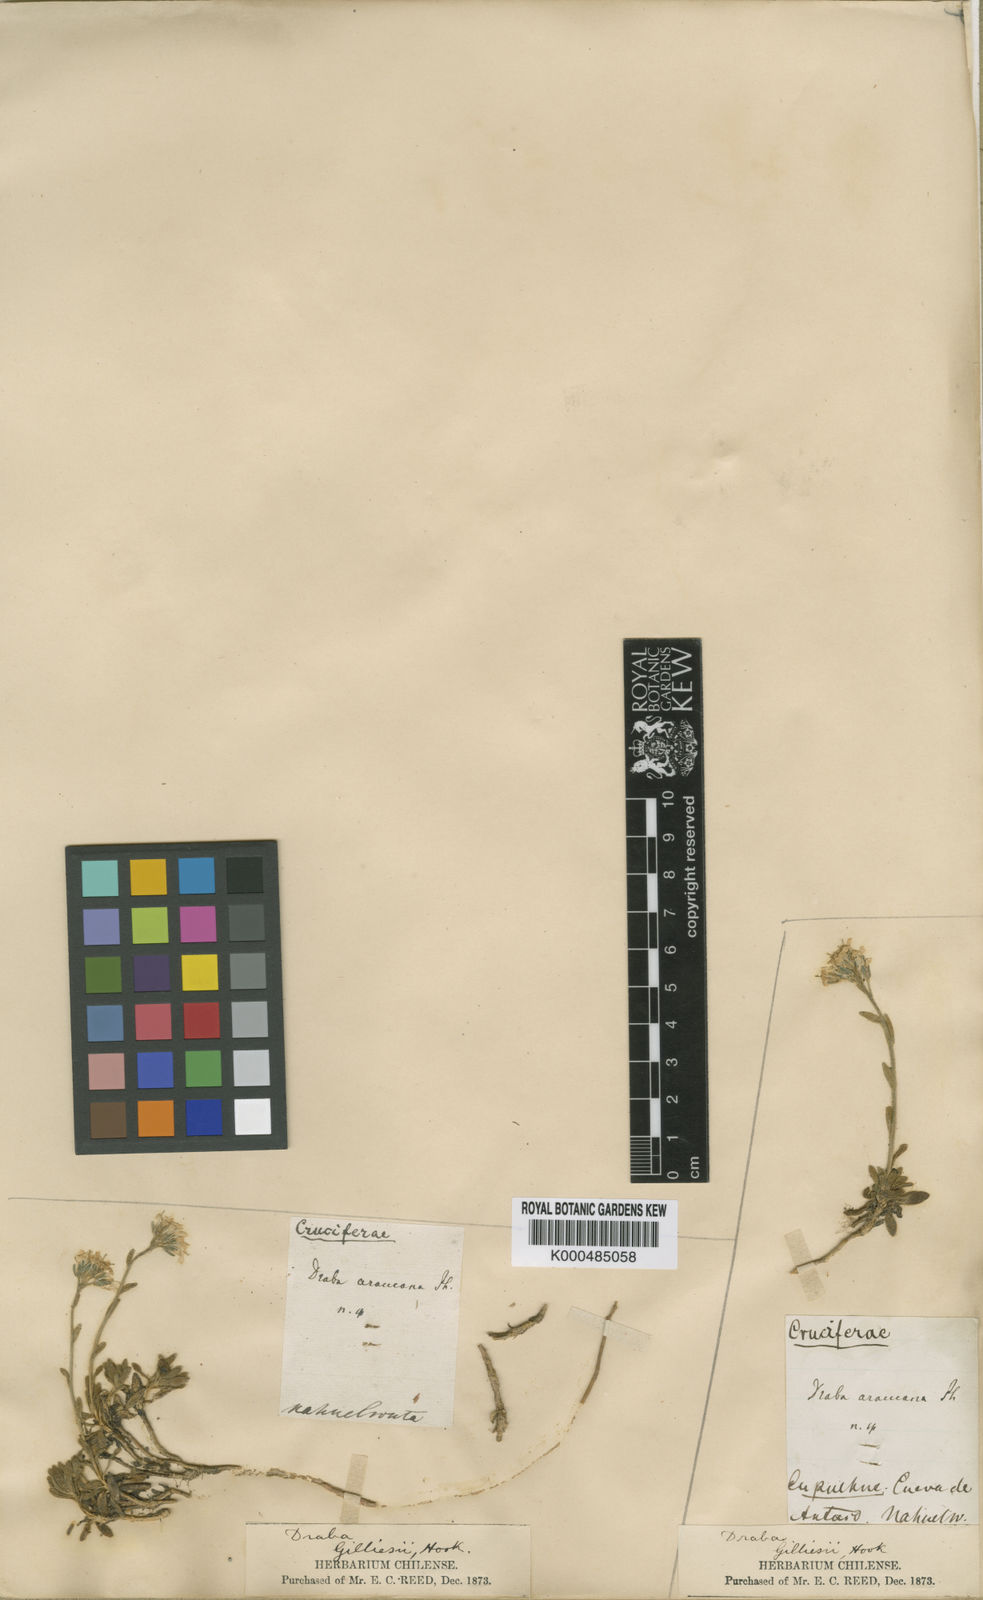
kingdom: Plantae
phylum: Tracheophyta
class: Magnoliopsida
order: Brassicales
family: Brassicaceae
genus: Draba
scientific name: Draba gilliesii
